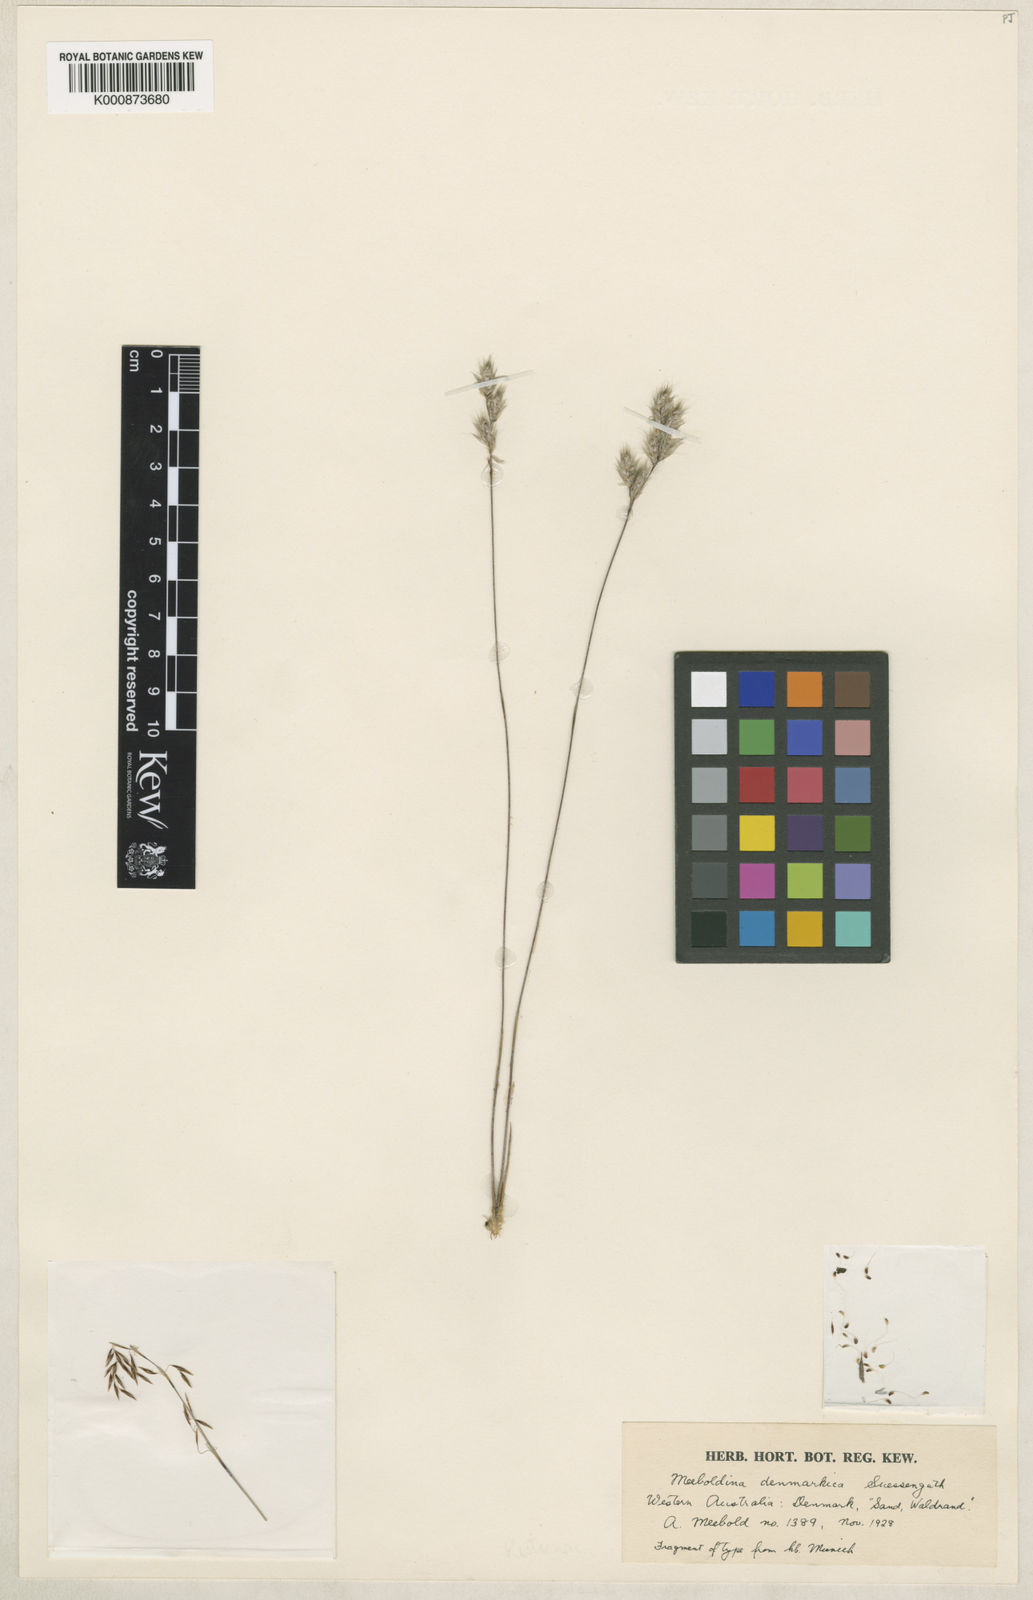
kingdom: Plantae
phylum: Tracheophyta
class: Liliopsida
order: Poales
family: Restionaceae
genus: Leptocarpus
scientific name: Leptocarpus denmarkicus
